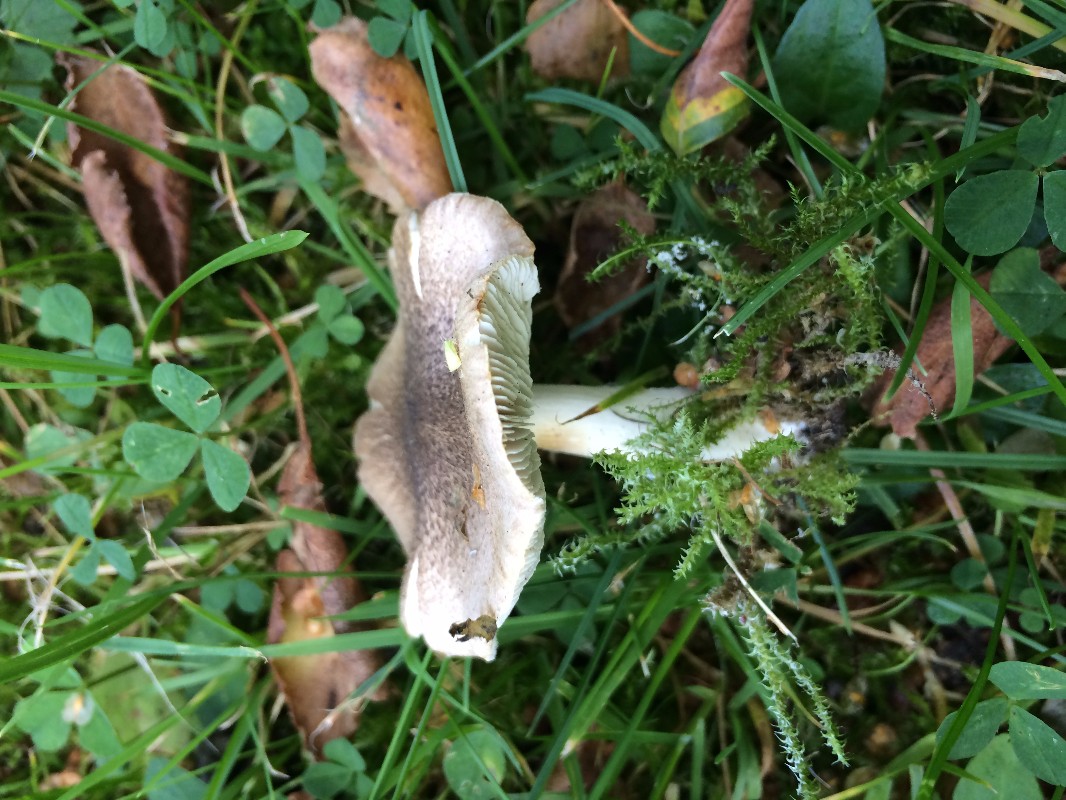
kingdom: Fungi
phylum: Basidiomycota
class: Agaricomycetes
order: Agaricales
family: Tricholomataceae
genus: Tricholoma
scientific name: Tricholoma scalpturatum
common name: gulplettet ridderhat
